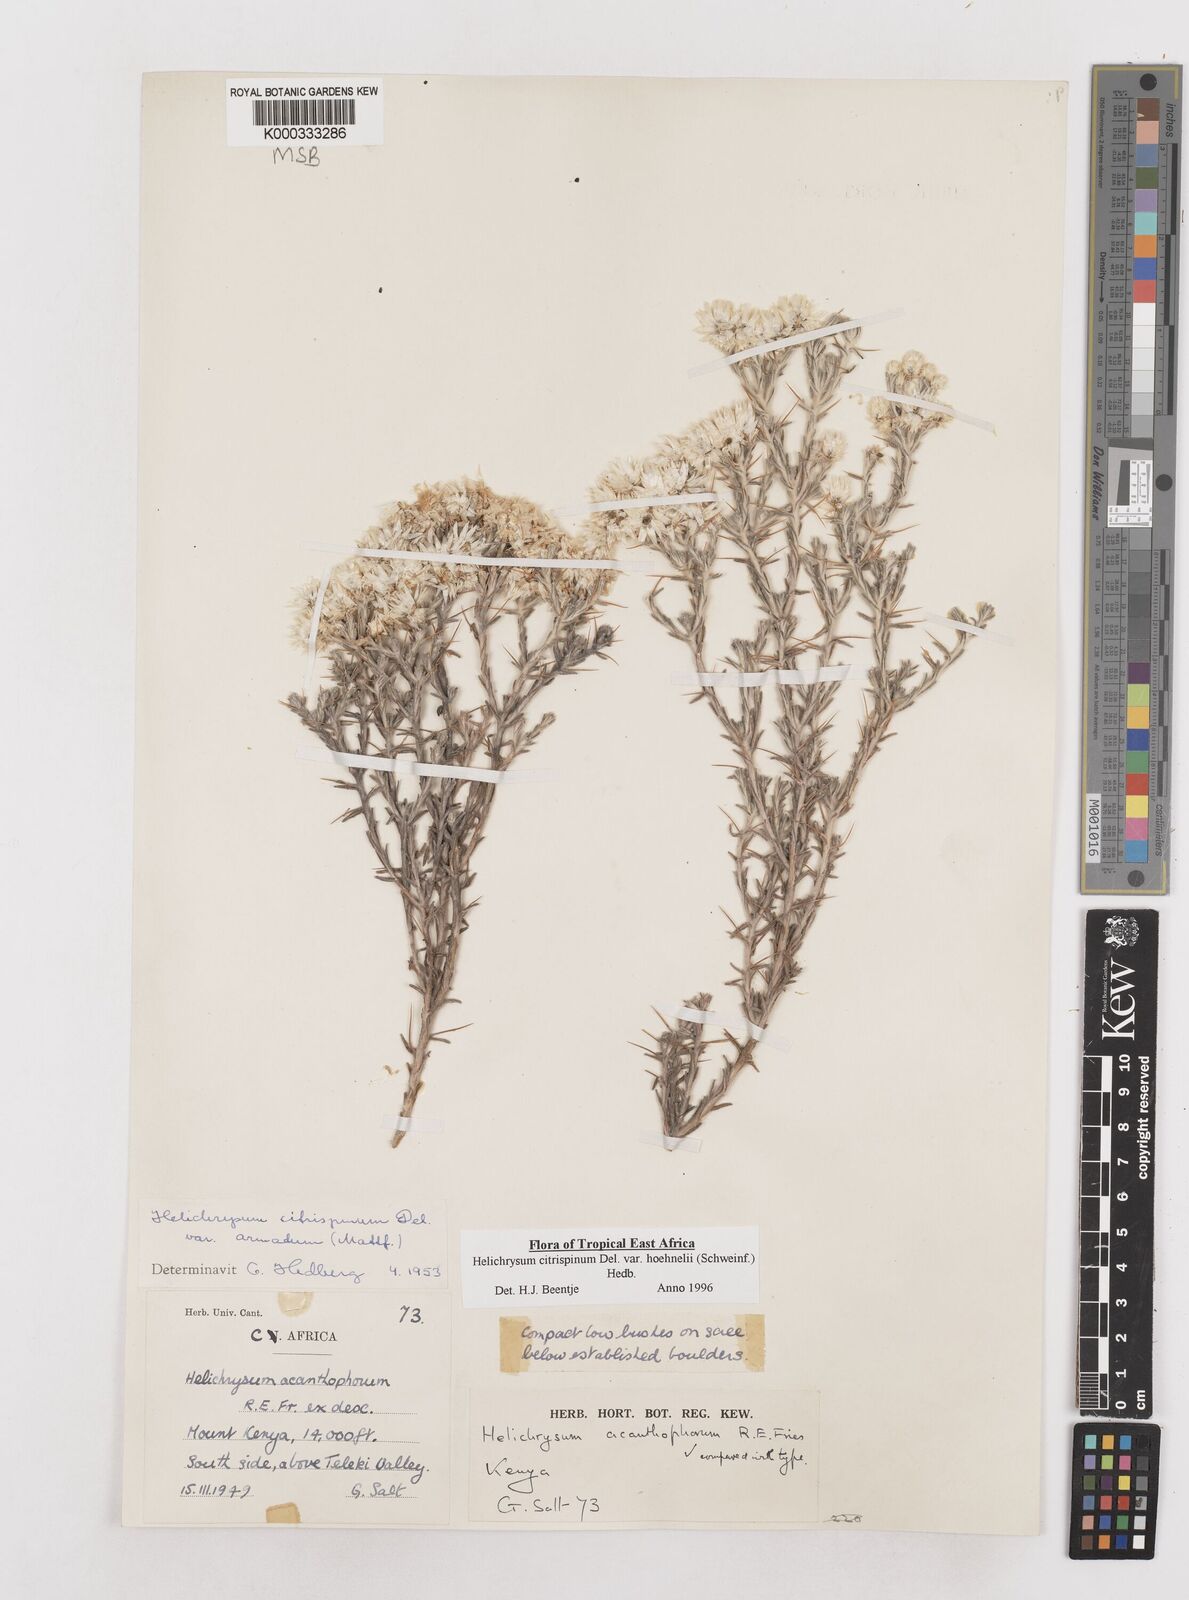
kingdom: Plantae
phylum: Tracheophyta
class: Magnoliopsida
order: Asterales
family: Asteraceae
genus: Helichrysum
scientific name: Helichrysum citrispinum
